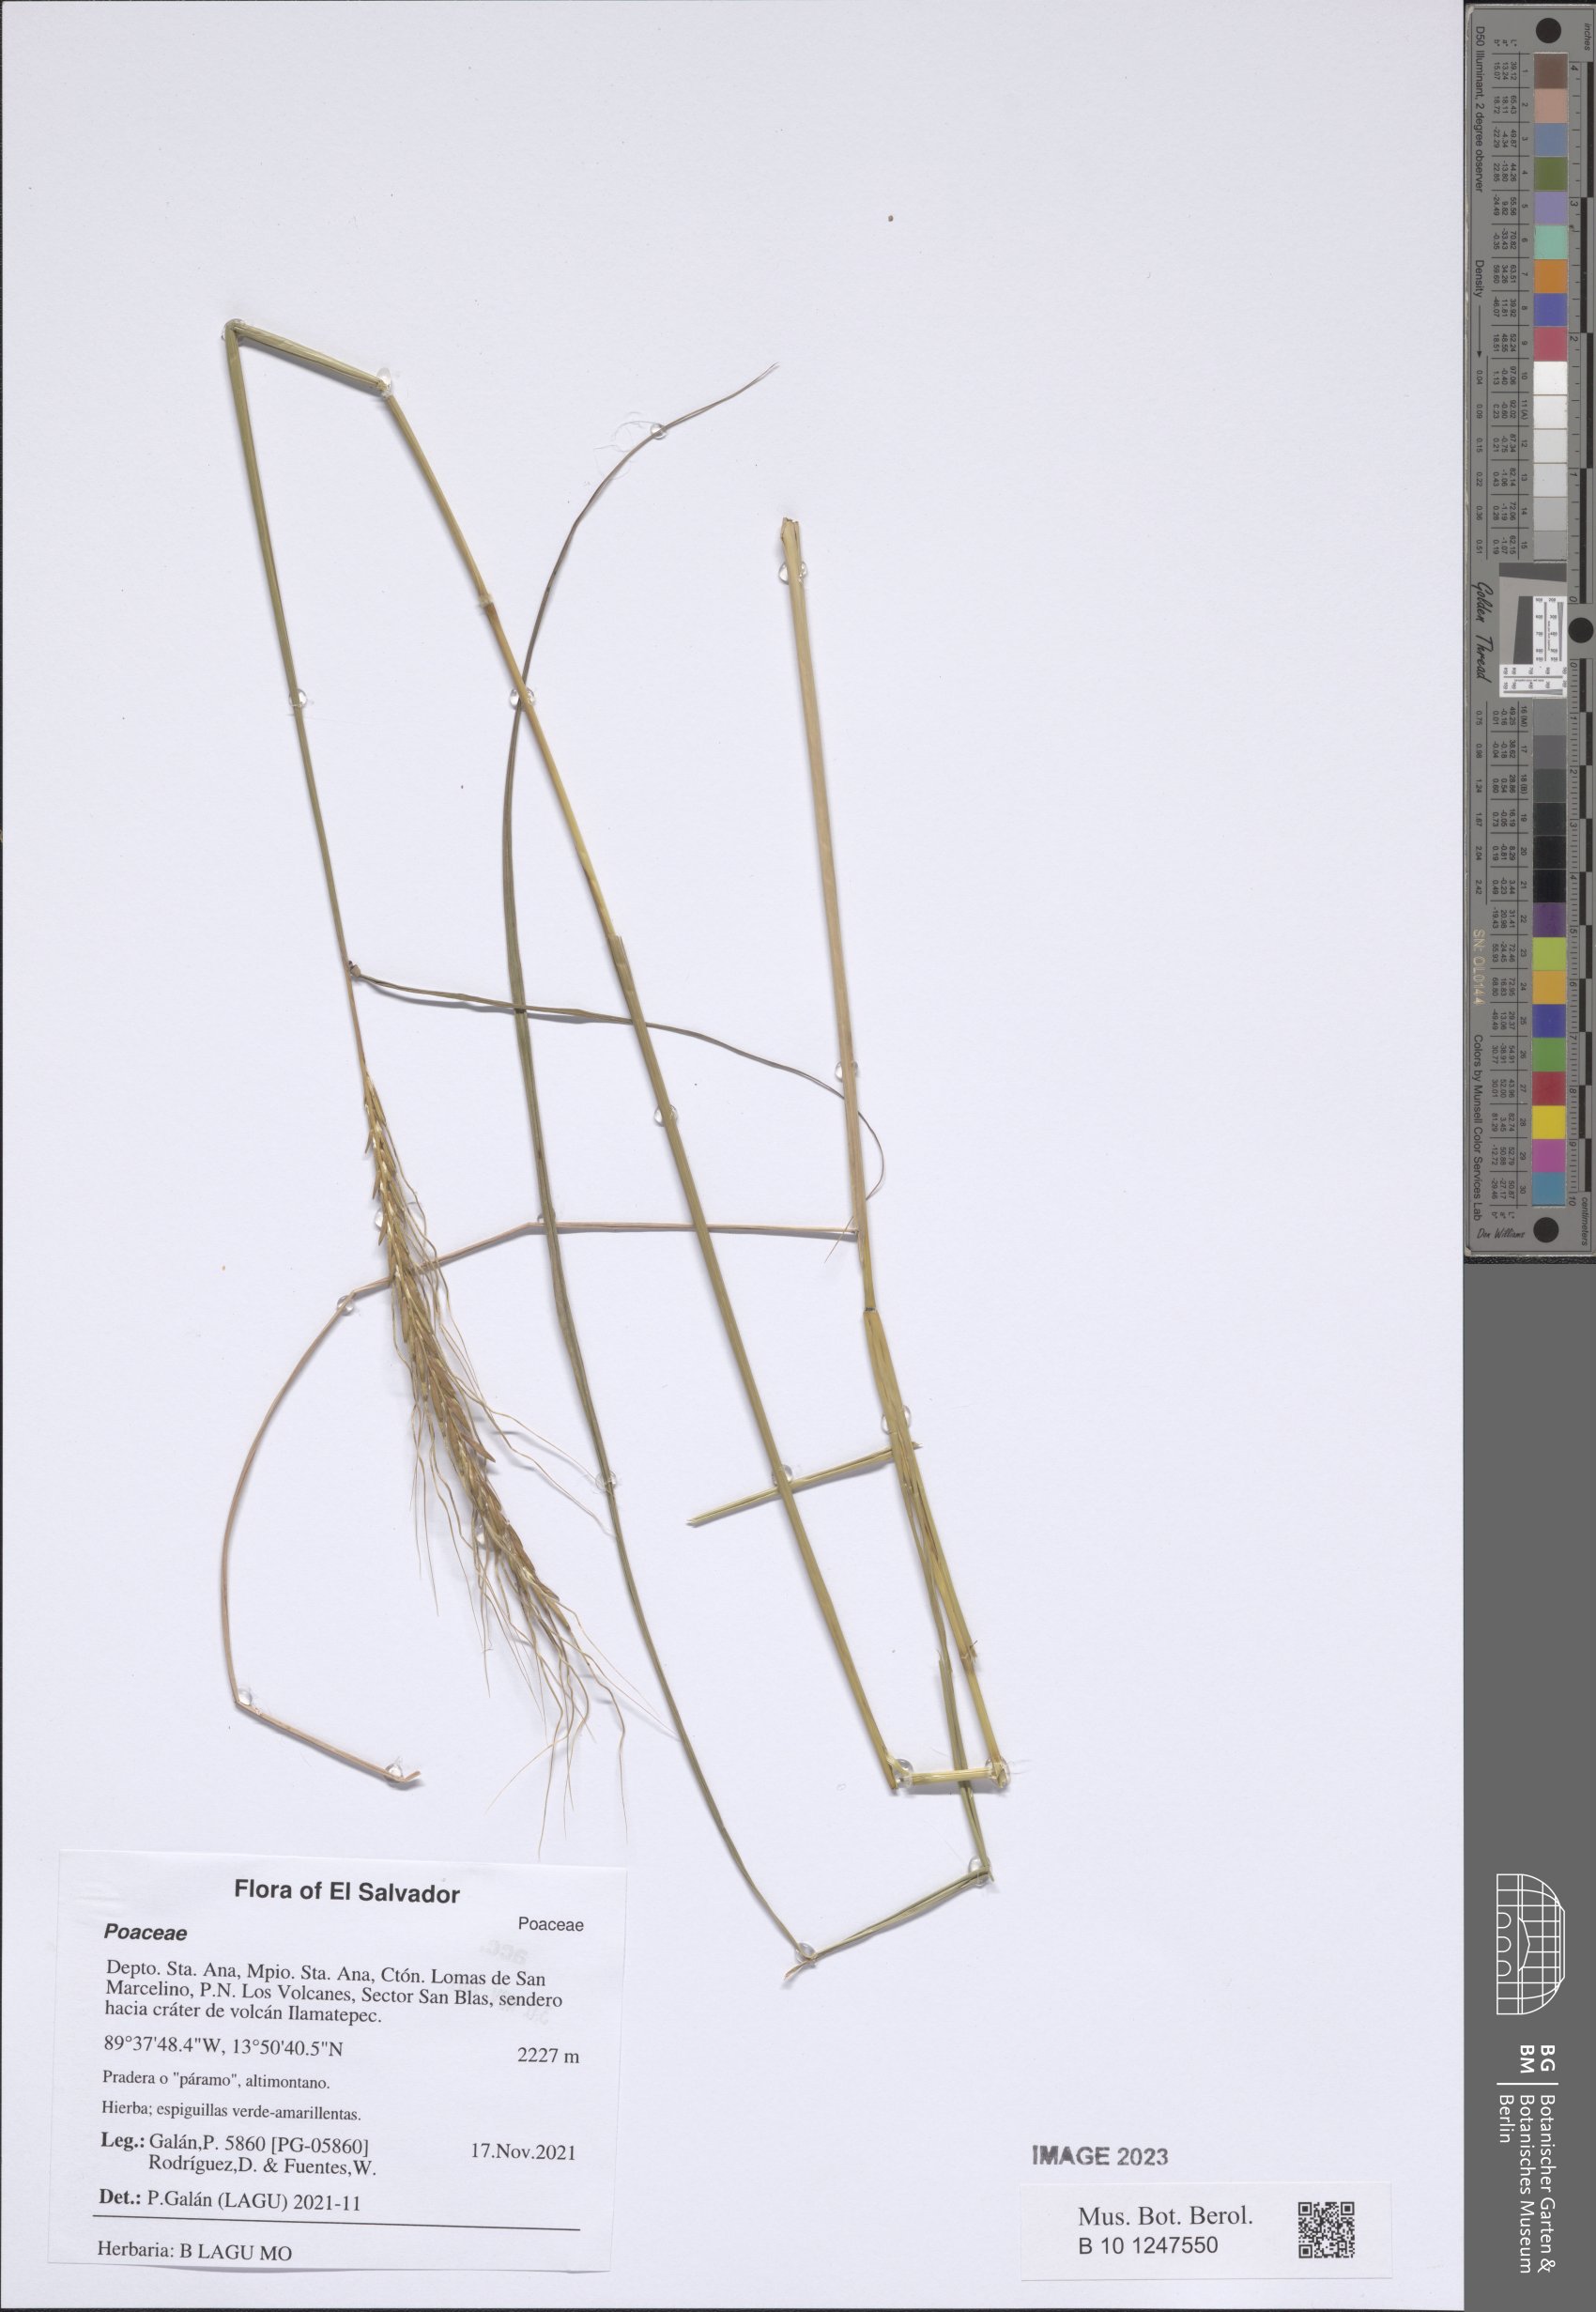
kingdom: Plantae
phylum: Tracheophyta
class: Liliopsida
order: Poales
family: Poaceae
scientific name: Poaceae
